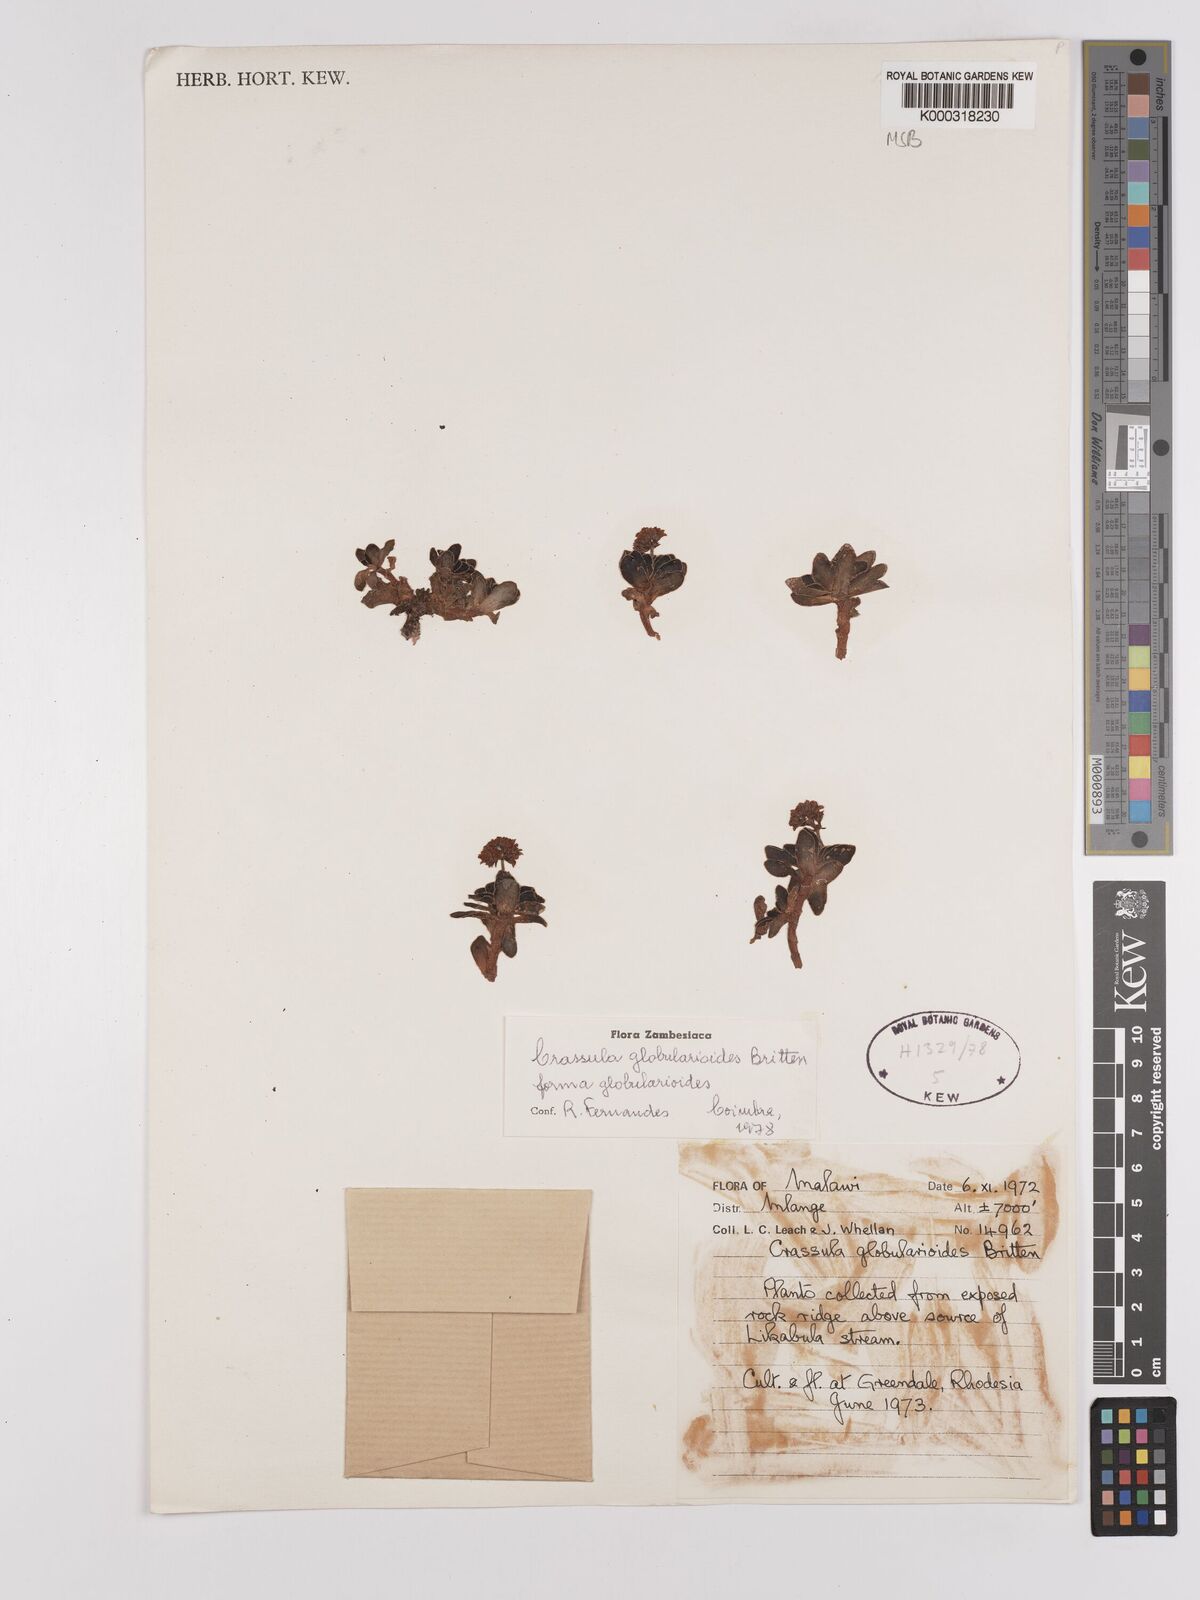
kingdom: Plantae
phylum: Tracheophyta
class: Magnoliopsida
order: Saxifragales
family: Crassulaceae
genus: Crassula
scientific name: Crassula globularioides
